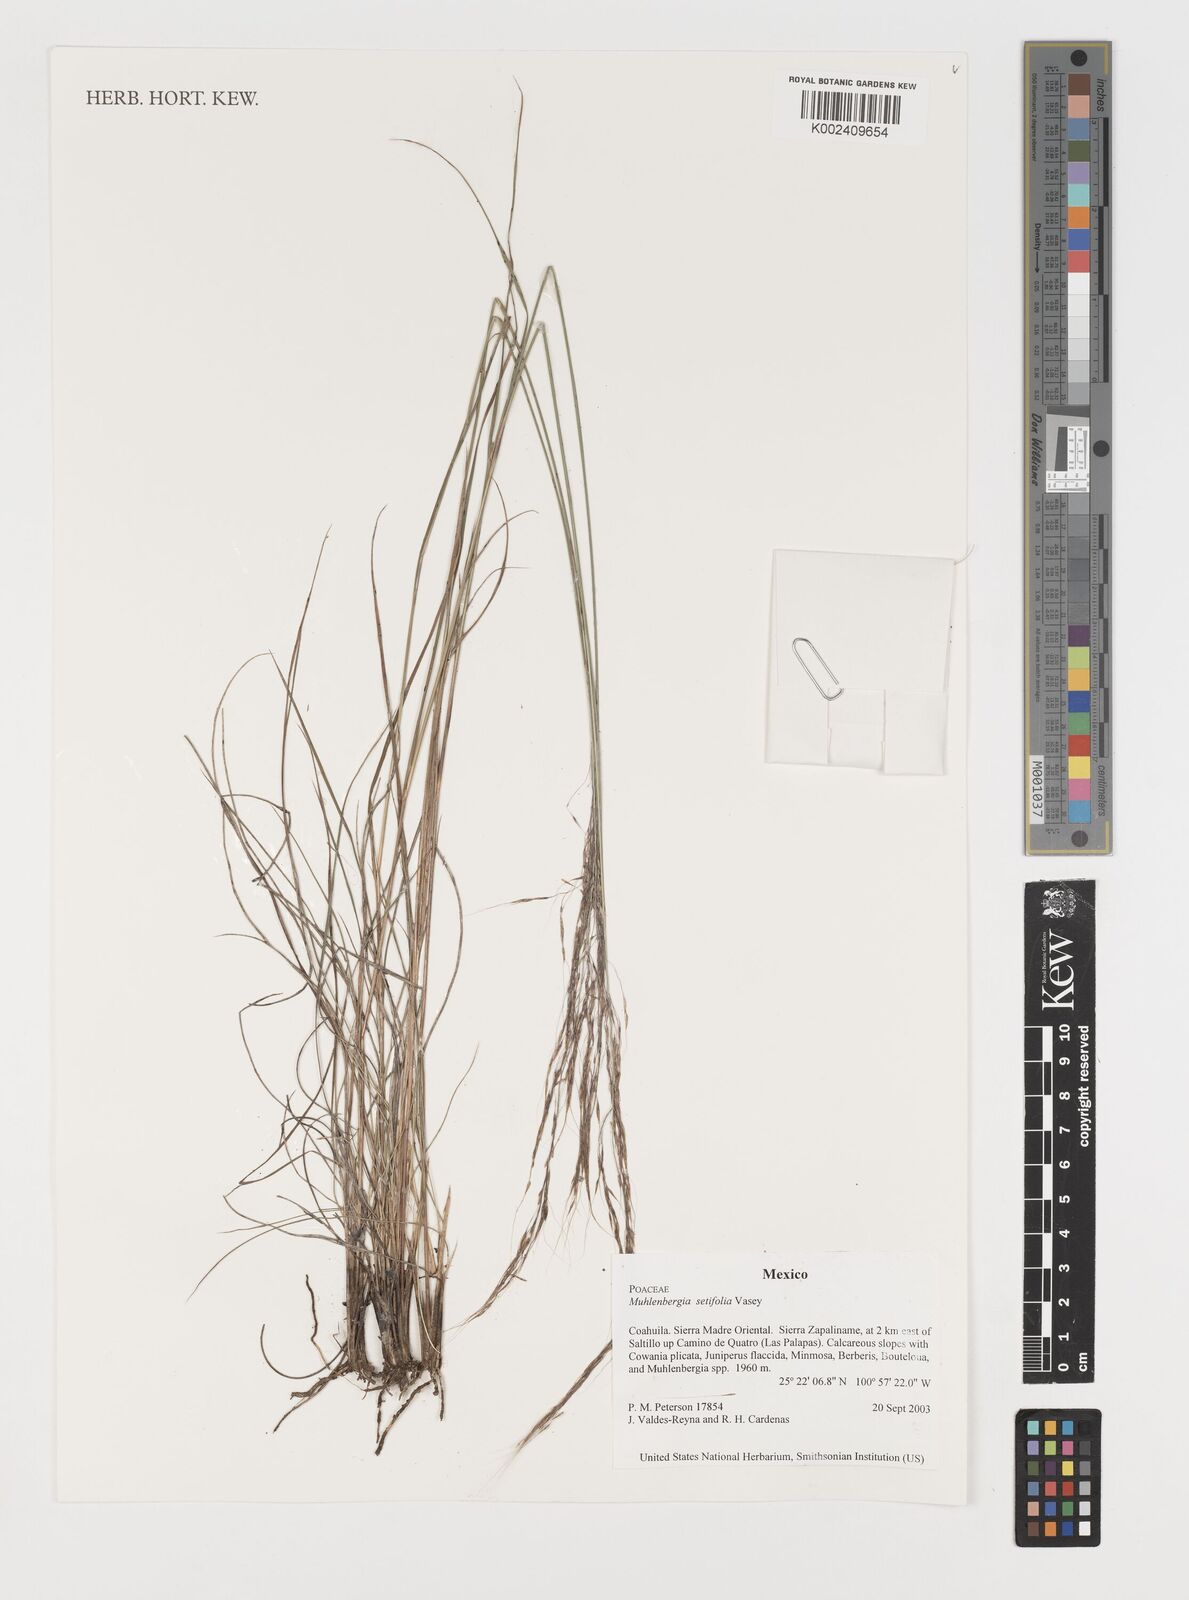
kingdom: Plantae
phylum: Tracheophyta
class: Liliopsida
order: Poales
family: Poaceae
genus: Muhlenbergia
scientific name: Muhlenbergia setifolia
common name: Curly-leaf muhly
